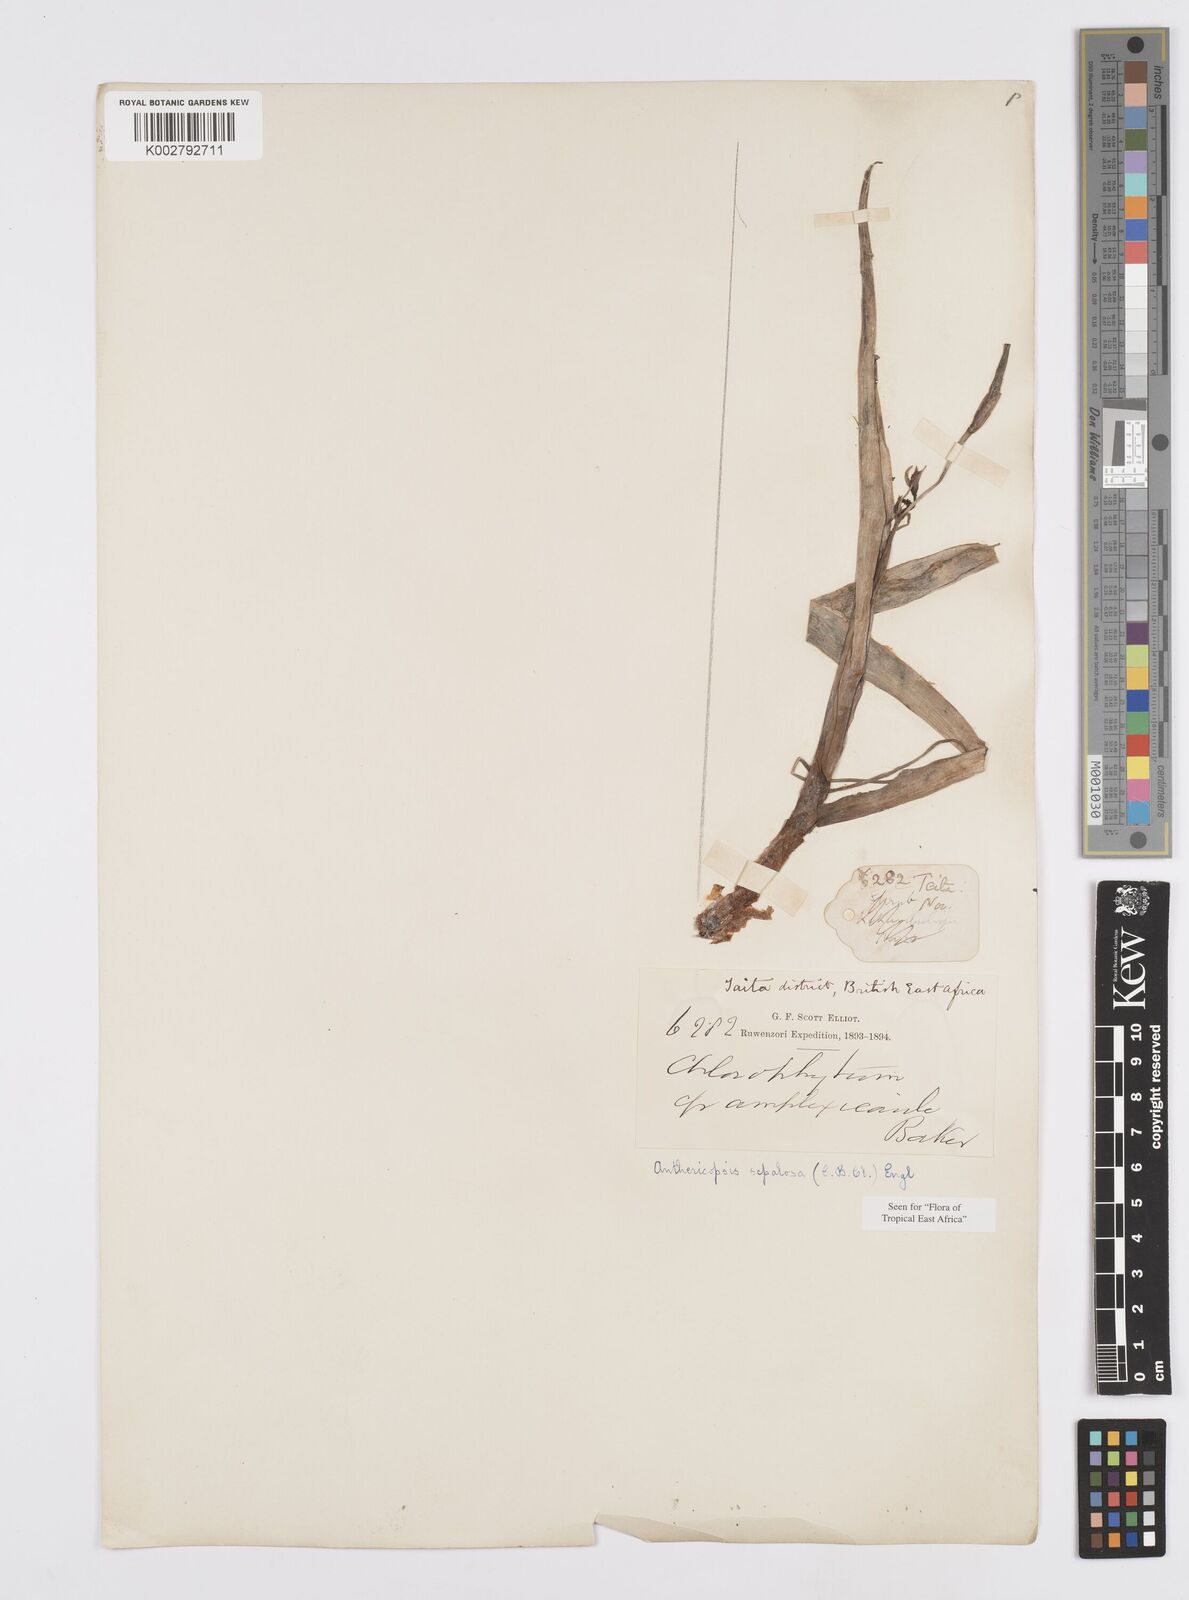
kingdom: Plantae
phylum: Tracheophyta
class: Liliopsida
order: Commelinales
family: Commelinaceae
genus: Anthericopsis
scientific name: Anthericopsis sepalosa
